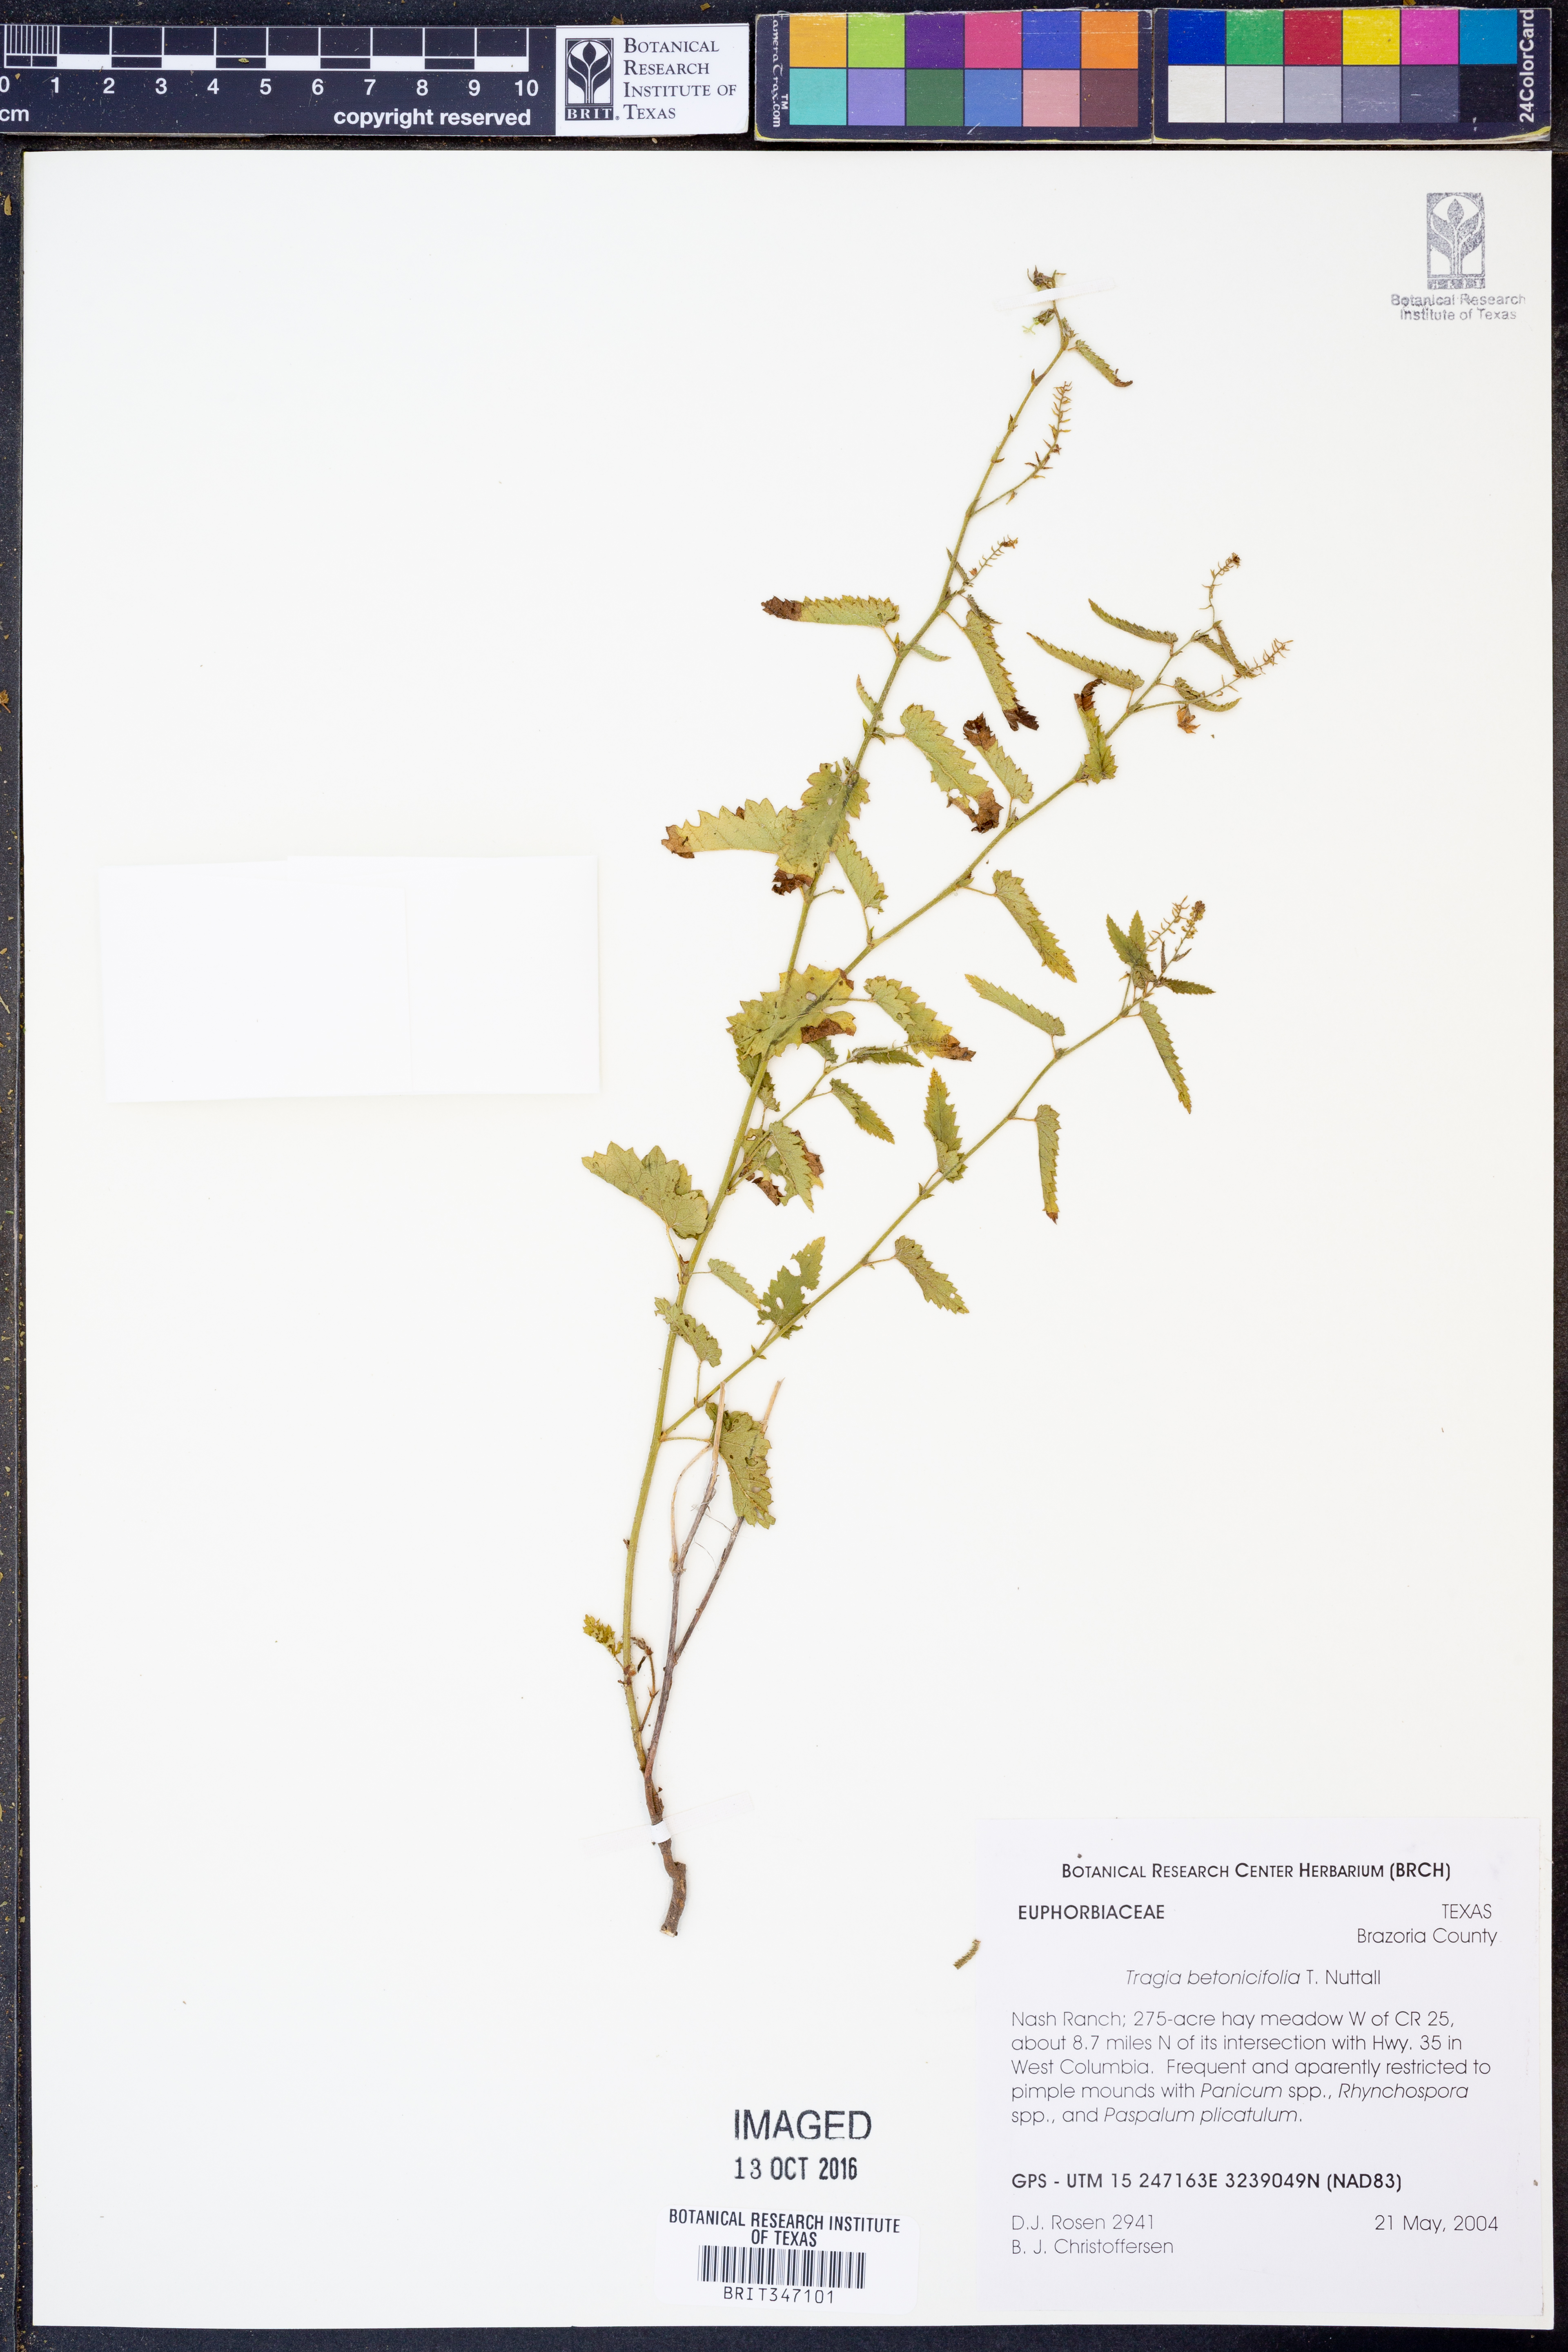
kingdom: Plantae
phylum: Tracheophyta
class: Magnoliopsida
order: Malpighiales
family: Euphorbiaceae
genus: Tragia
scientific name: Tragia betonicifolia
